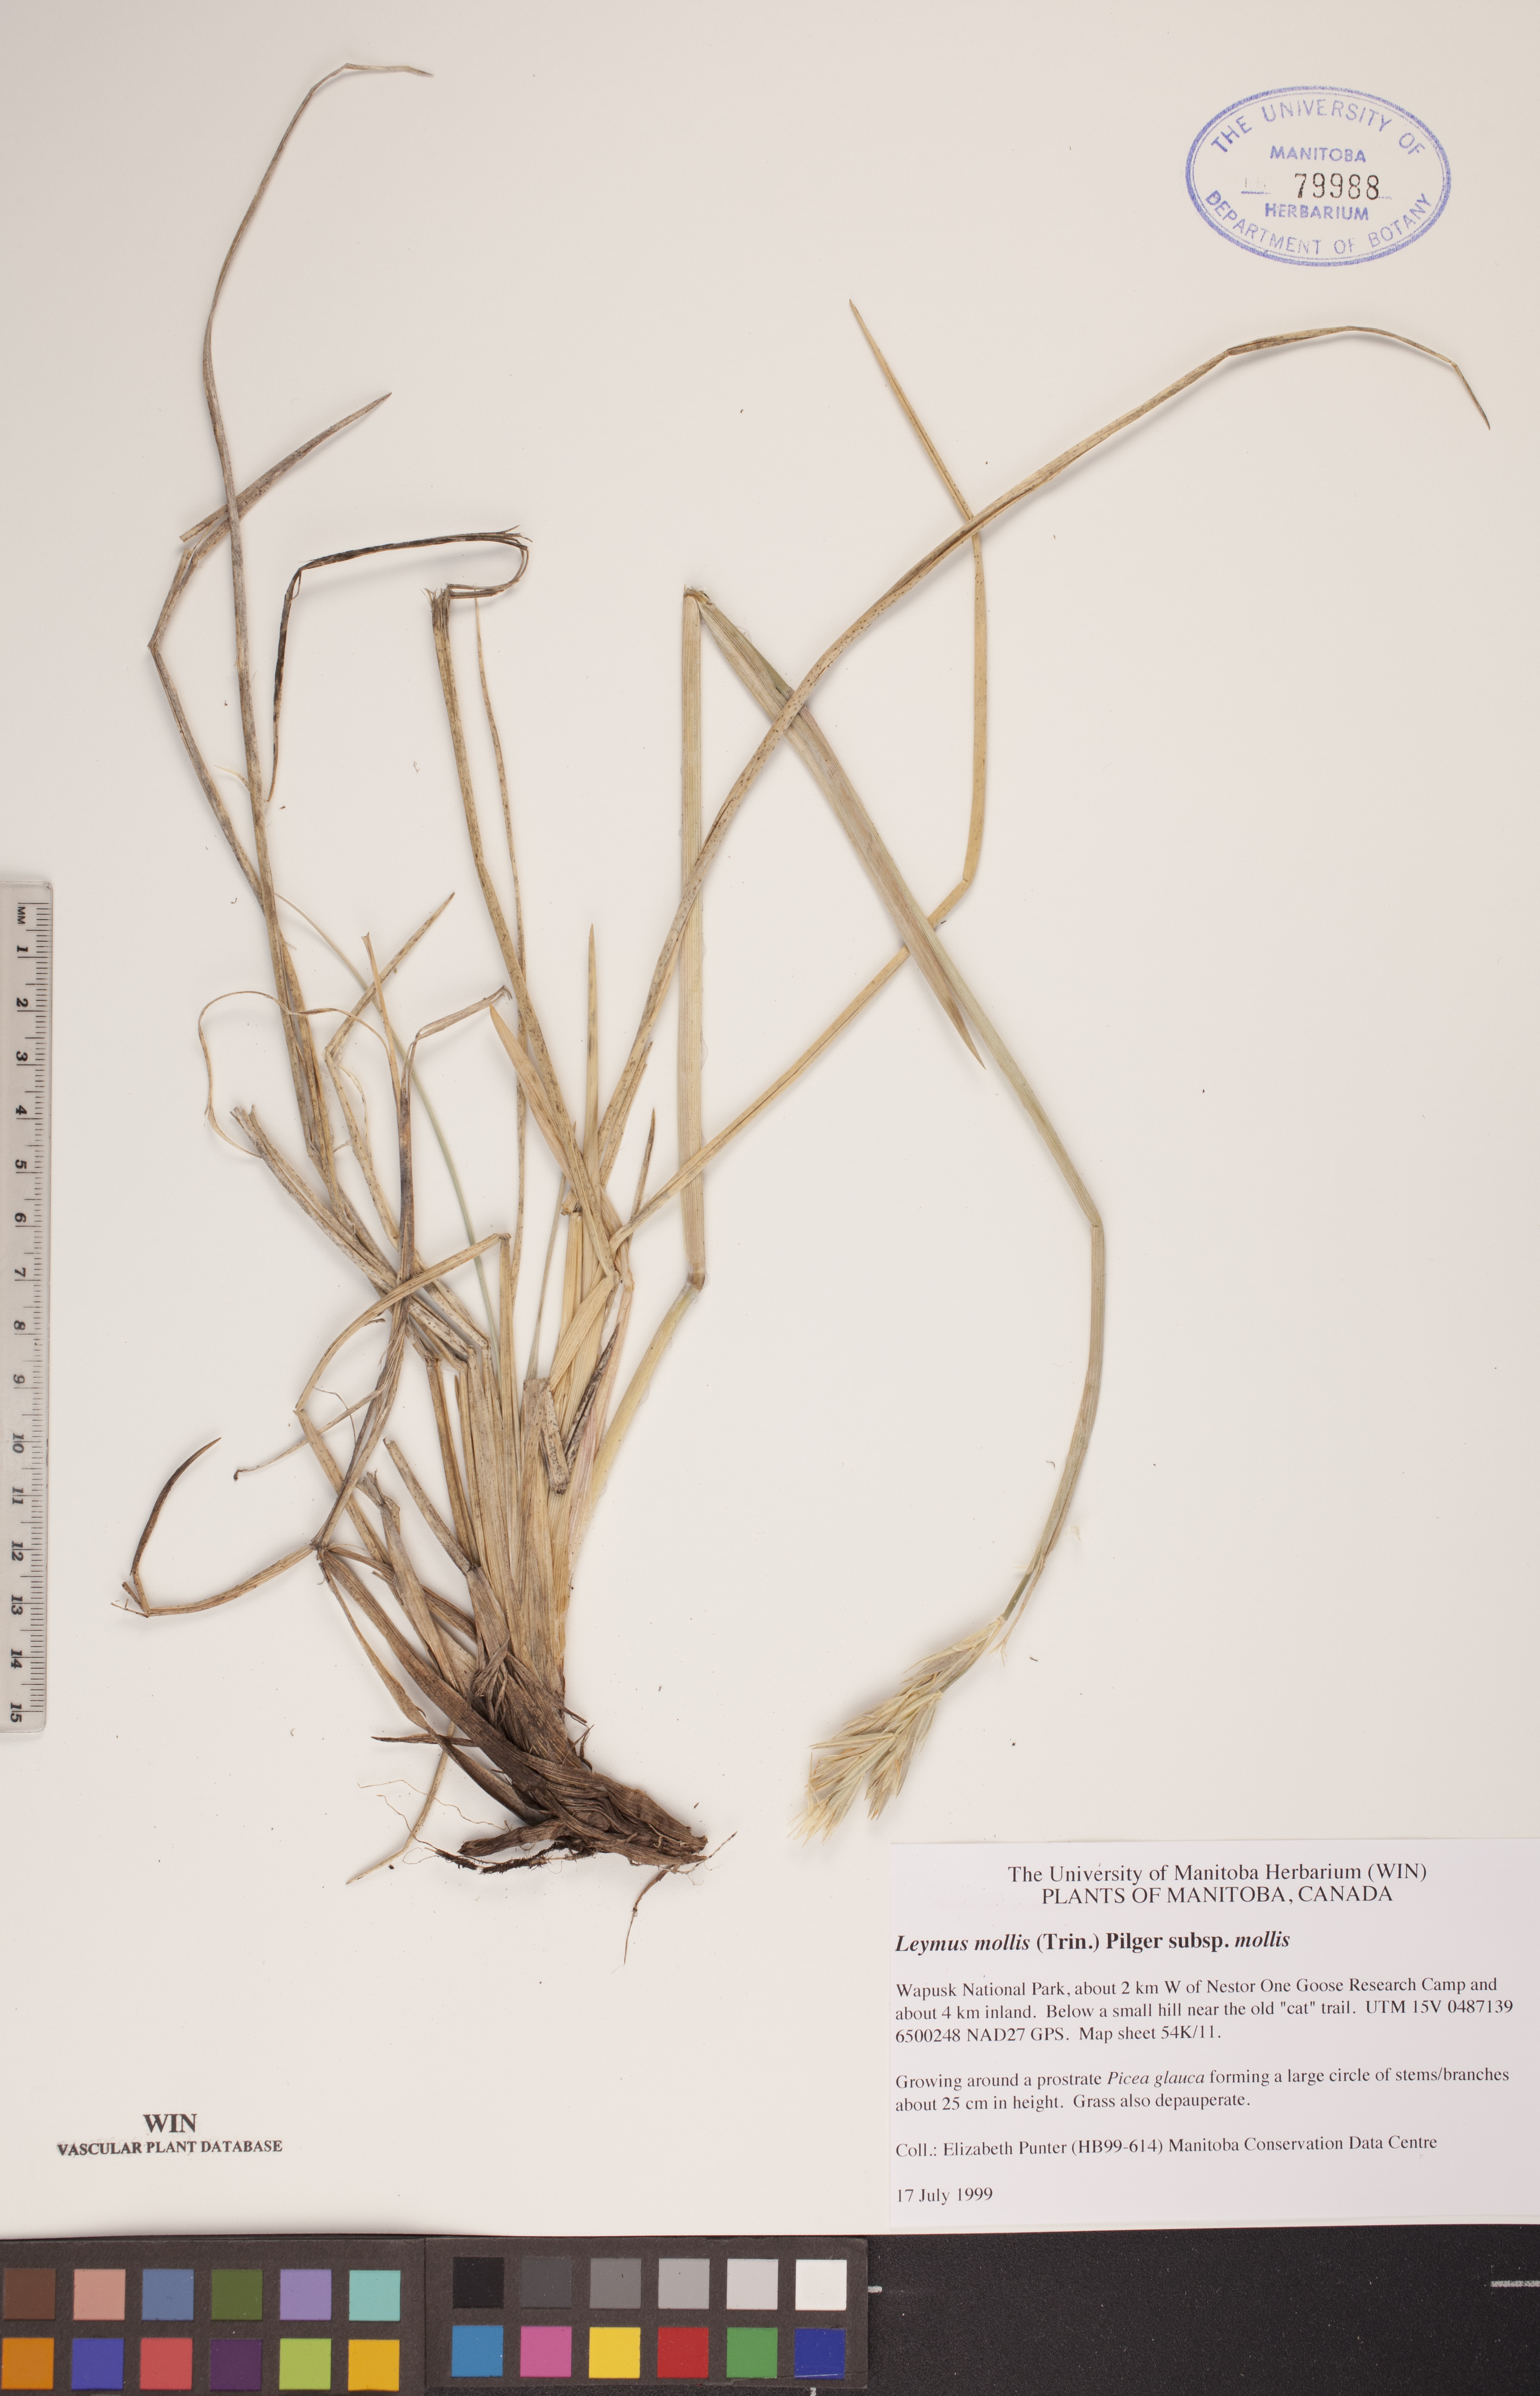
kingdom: Plantae
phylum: Tracheophyta
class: Liliopsida
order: Poales
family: Poaceae
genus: Leymus
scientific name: Leymus mollis
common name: American dune grass
